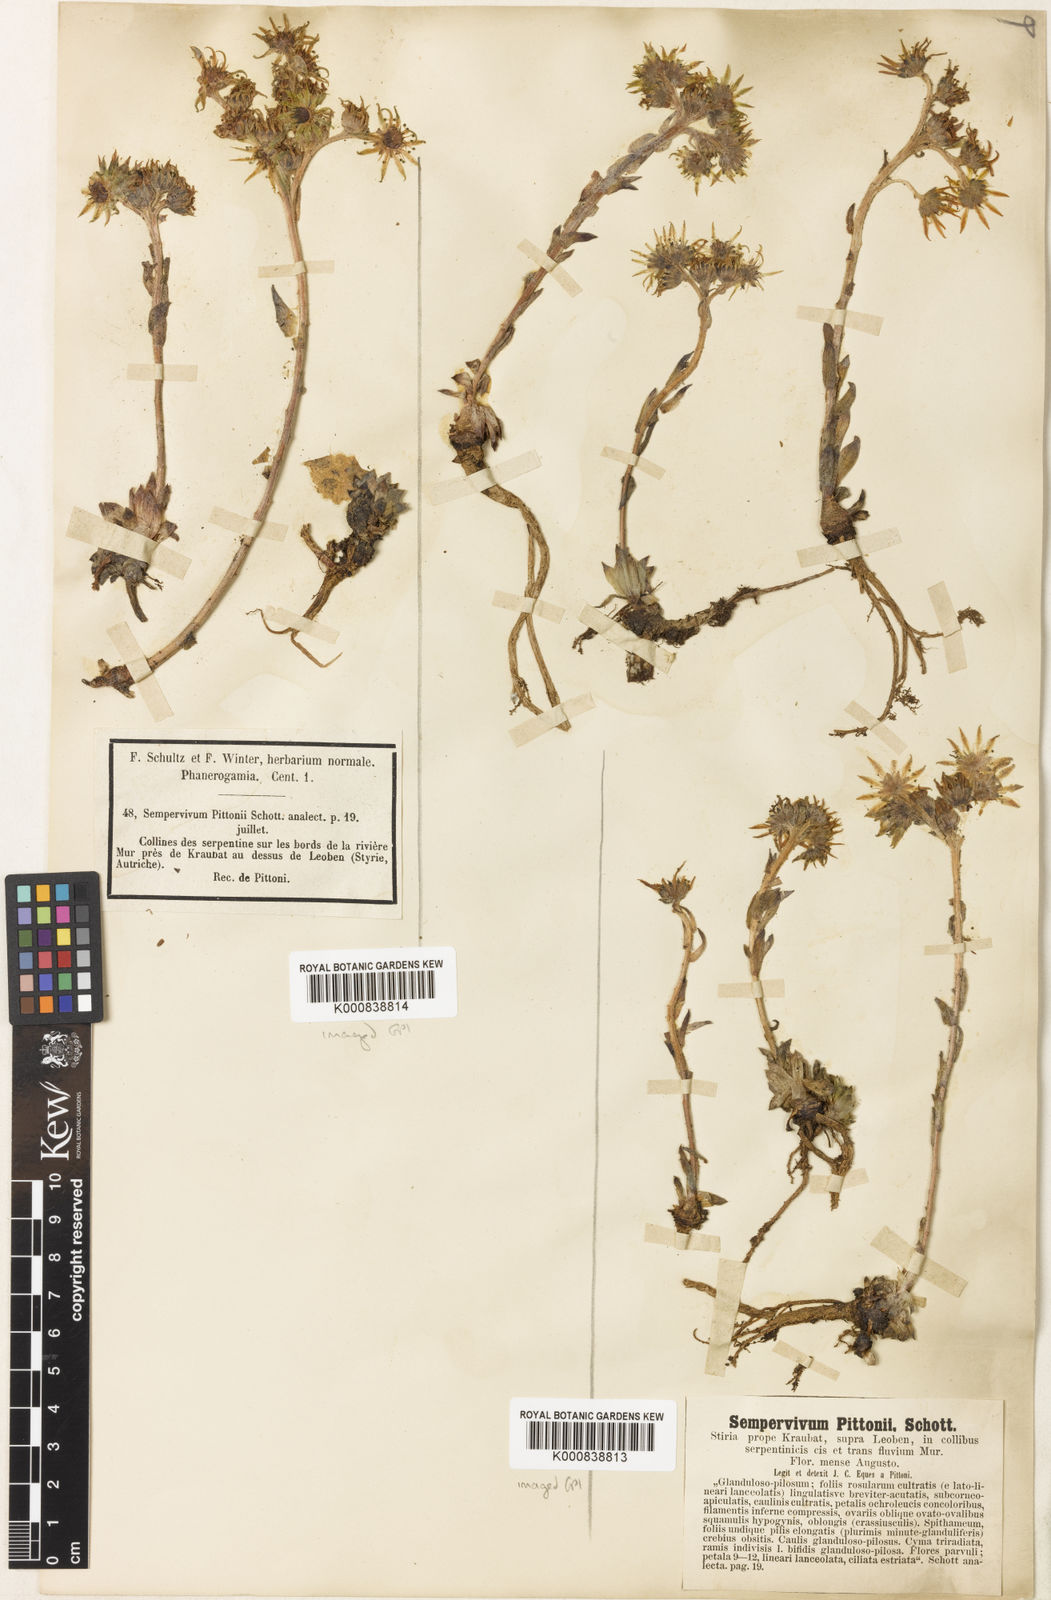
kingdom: Plantae
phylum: Tracheophyta
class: Magnoliopsida
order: Saxifragales
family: Crassulaceae
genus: Sempervivum
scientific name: Sempervivum pittonii
